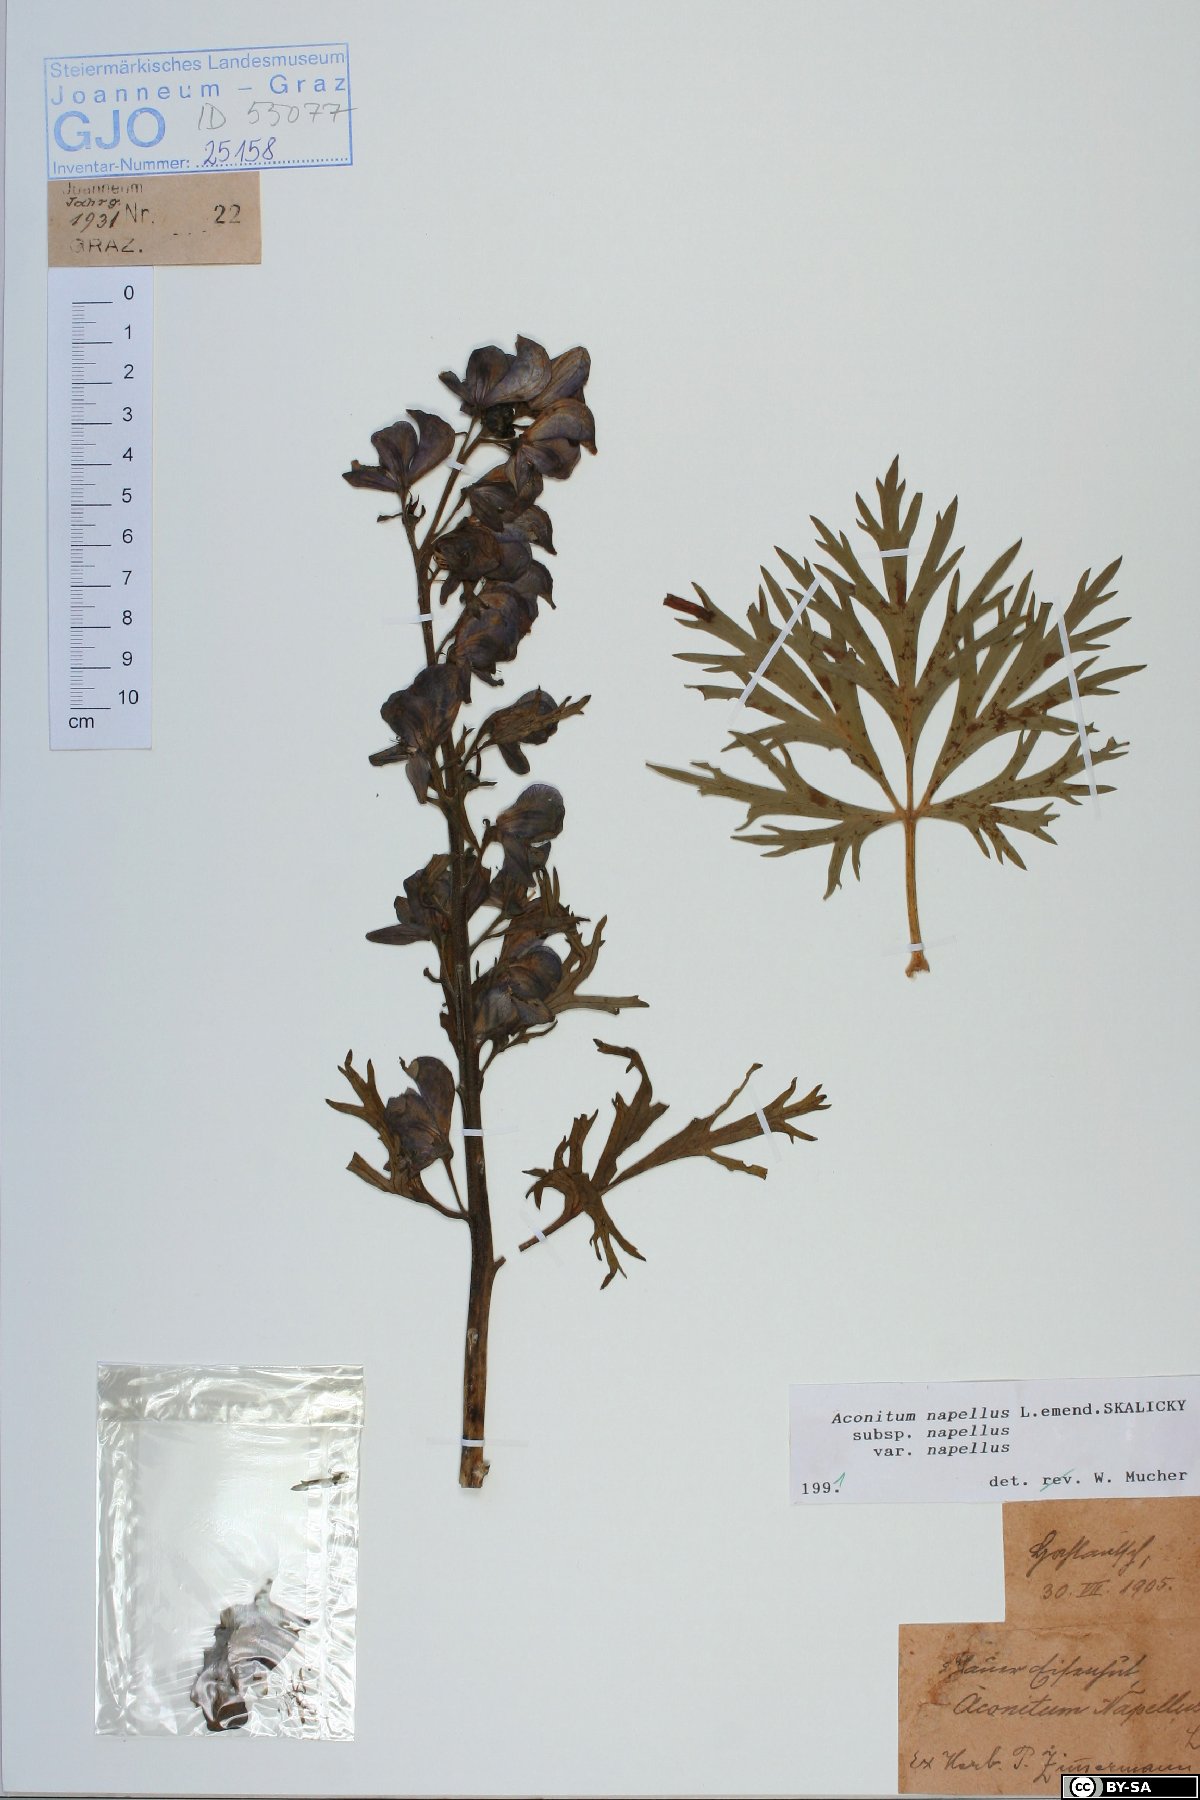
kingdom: Plantae
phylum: Tracheophyta
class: Magnoliopsida
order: Ranunculales
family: Ranunculaceae
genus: Aconitum
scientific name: Aconitum napellus
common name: Garden monkshood
